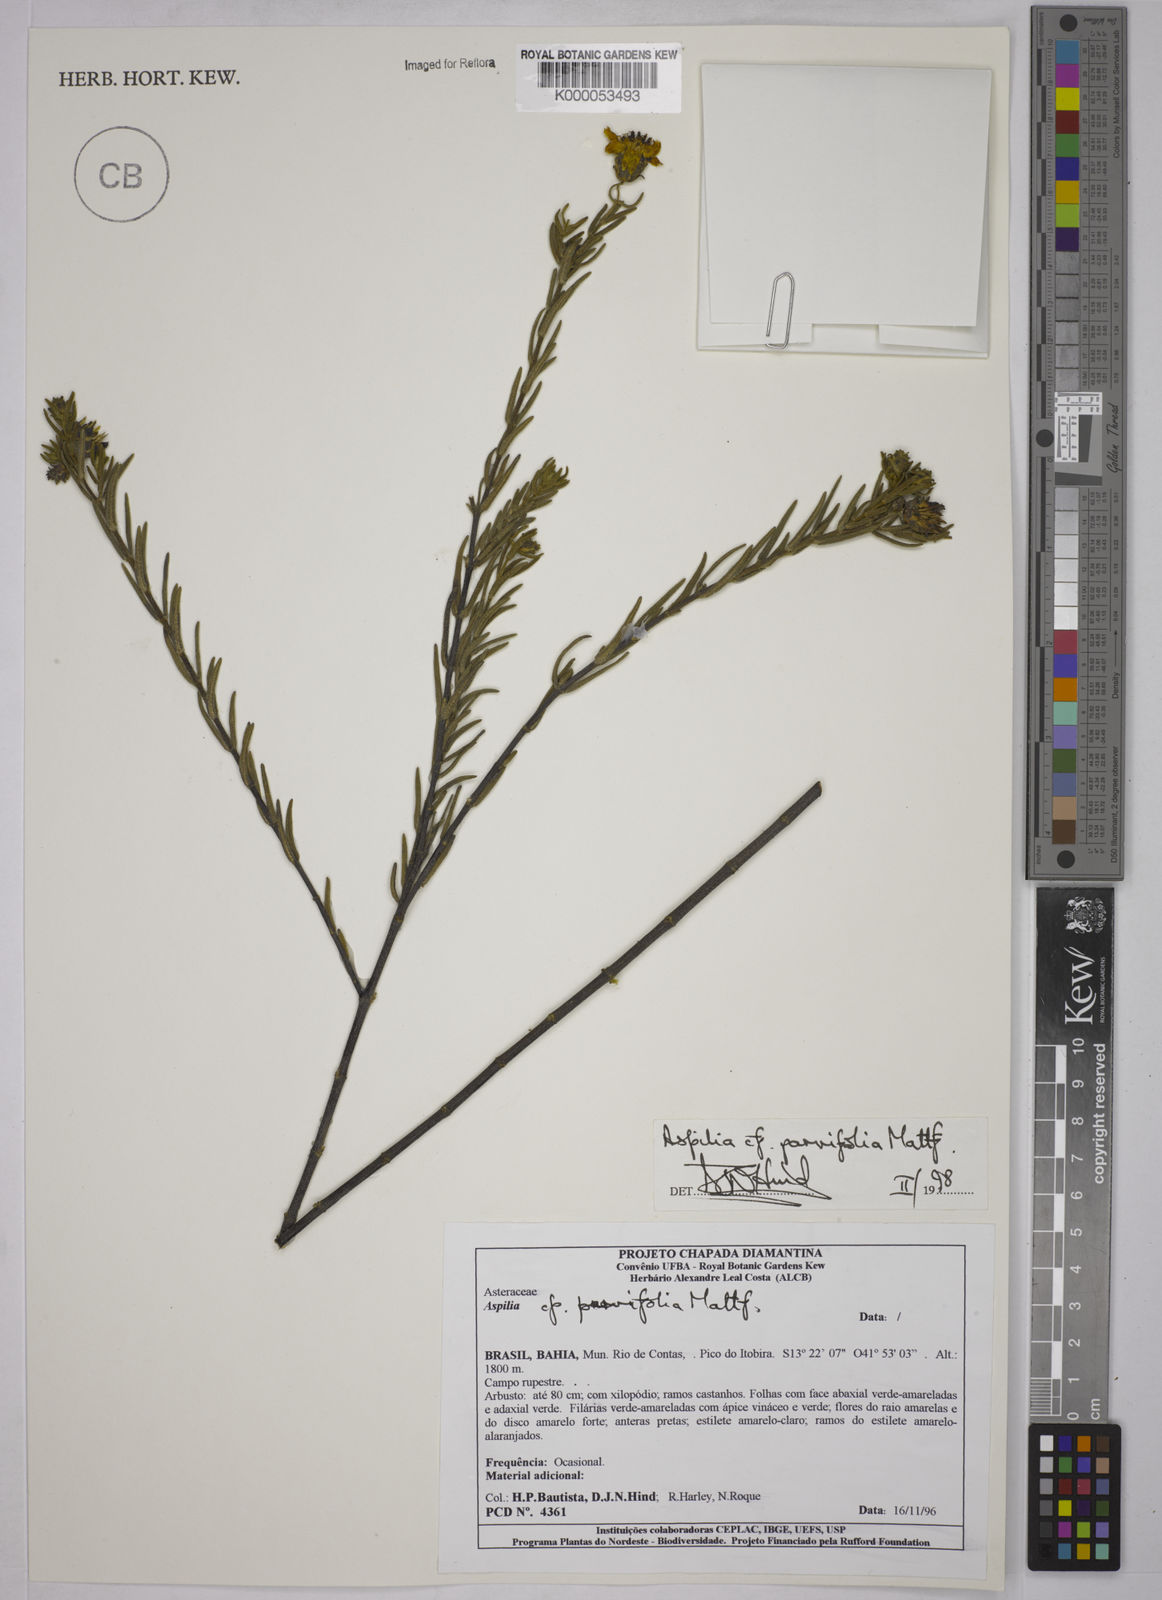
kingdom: Plantae
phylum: Tracheophyta
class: Magnoliopsida
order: Asterales
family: Asteraceae
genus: Aspilia
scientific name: Aspilia foliosa
